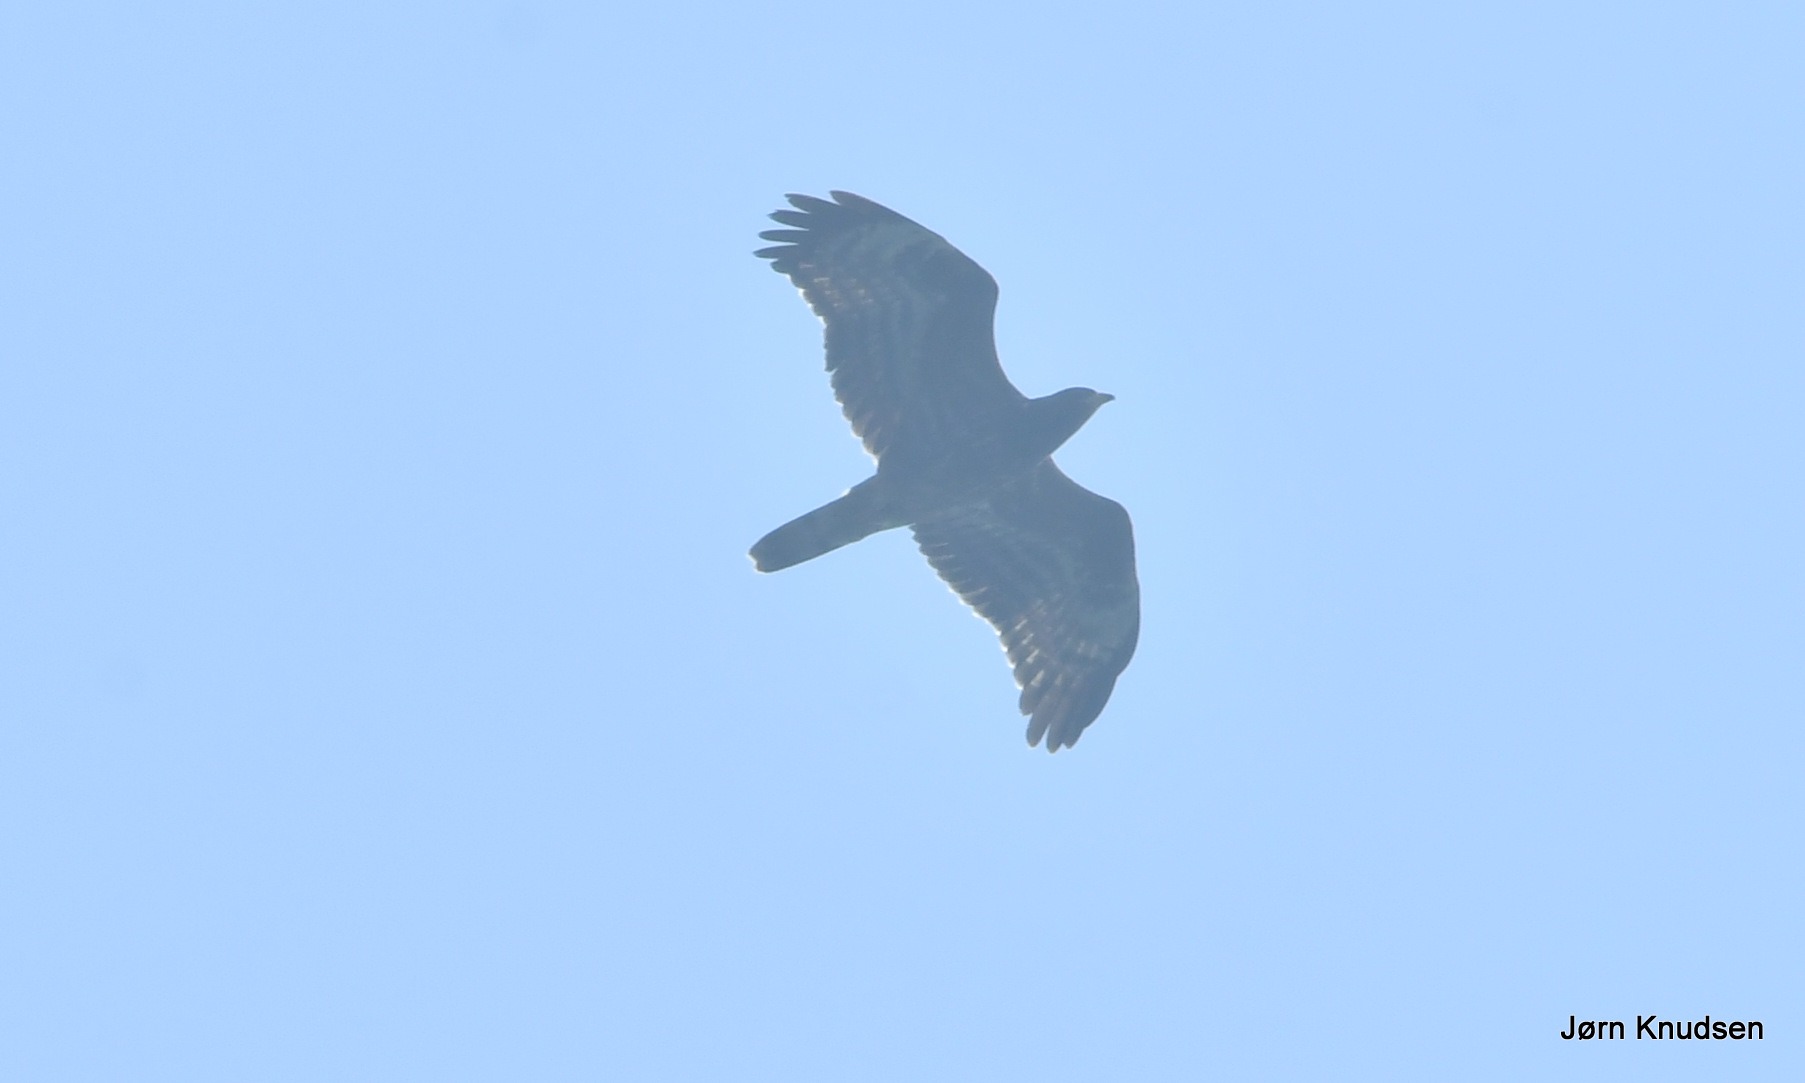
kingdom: Animalia
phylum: Chordata
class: Aves
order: Accipitriformes
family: Accipitridae
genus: Pernis
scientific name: Pernis apivorus
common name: Hvepsevåge
